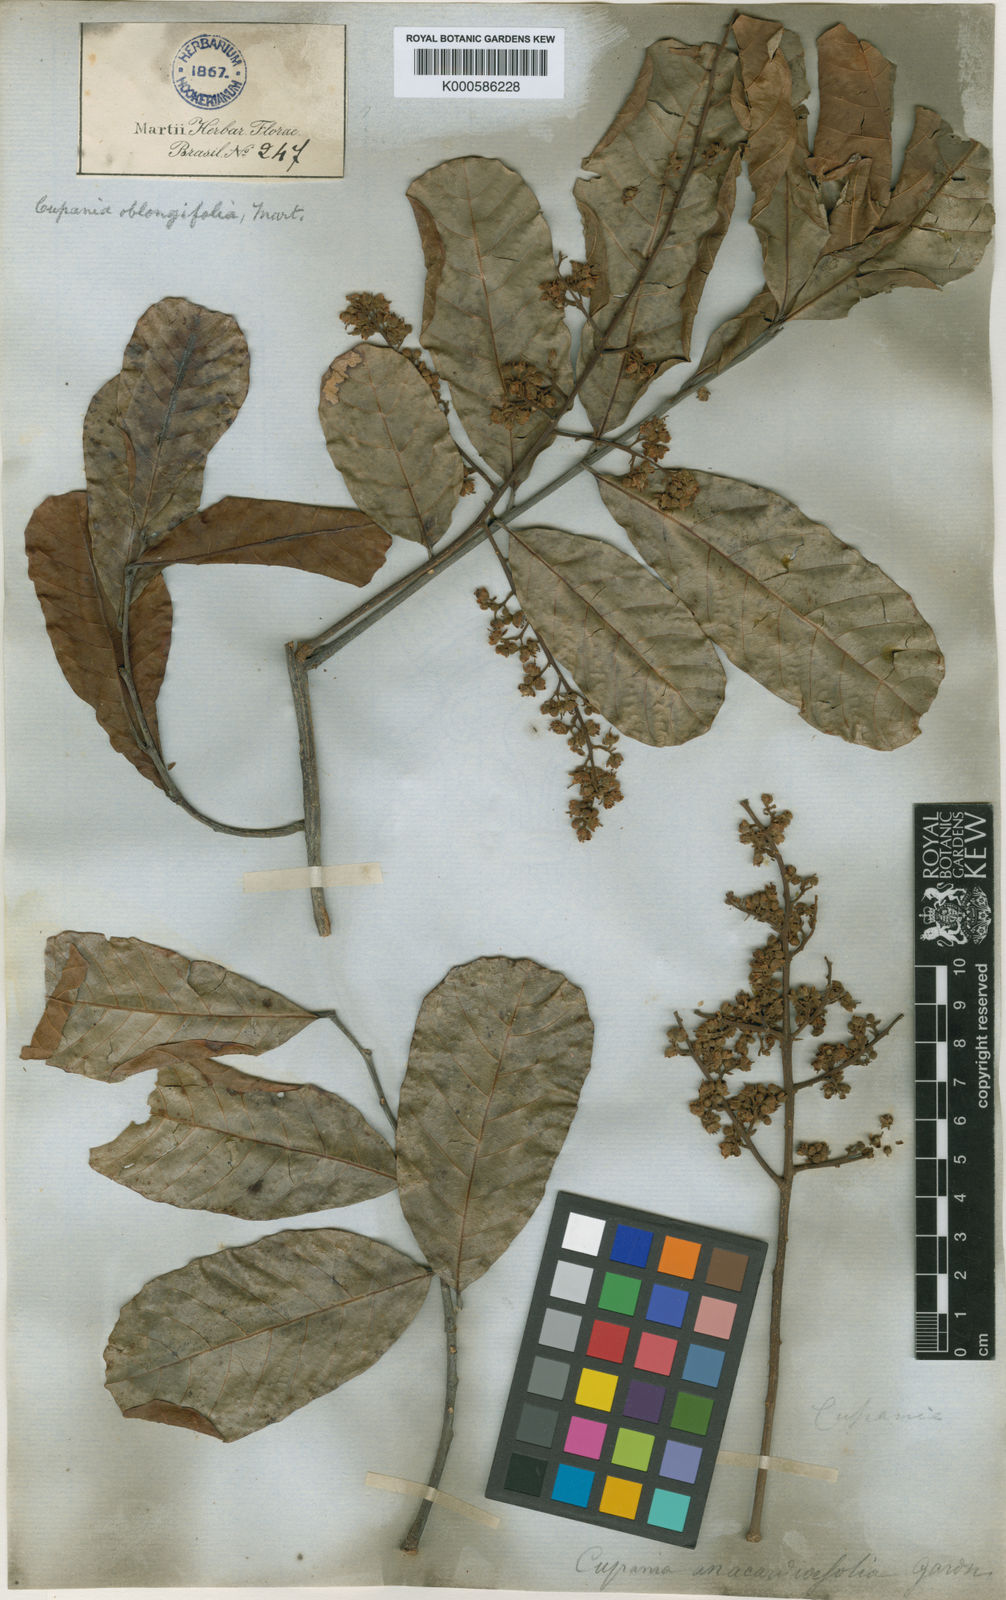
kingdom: Plantae
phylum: Tracheophyta
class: Magnoliopsida
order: Sapindales
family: Sapindaceae
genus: Cupania
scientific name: Cupania oblongifolia
